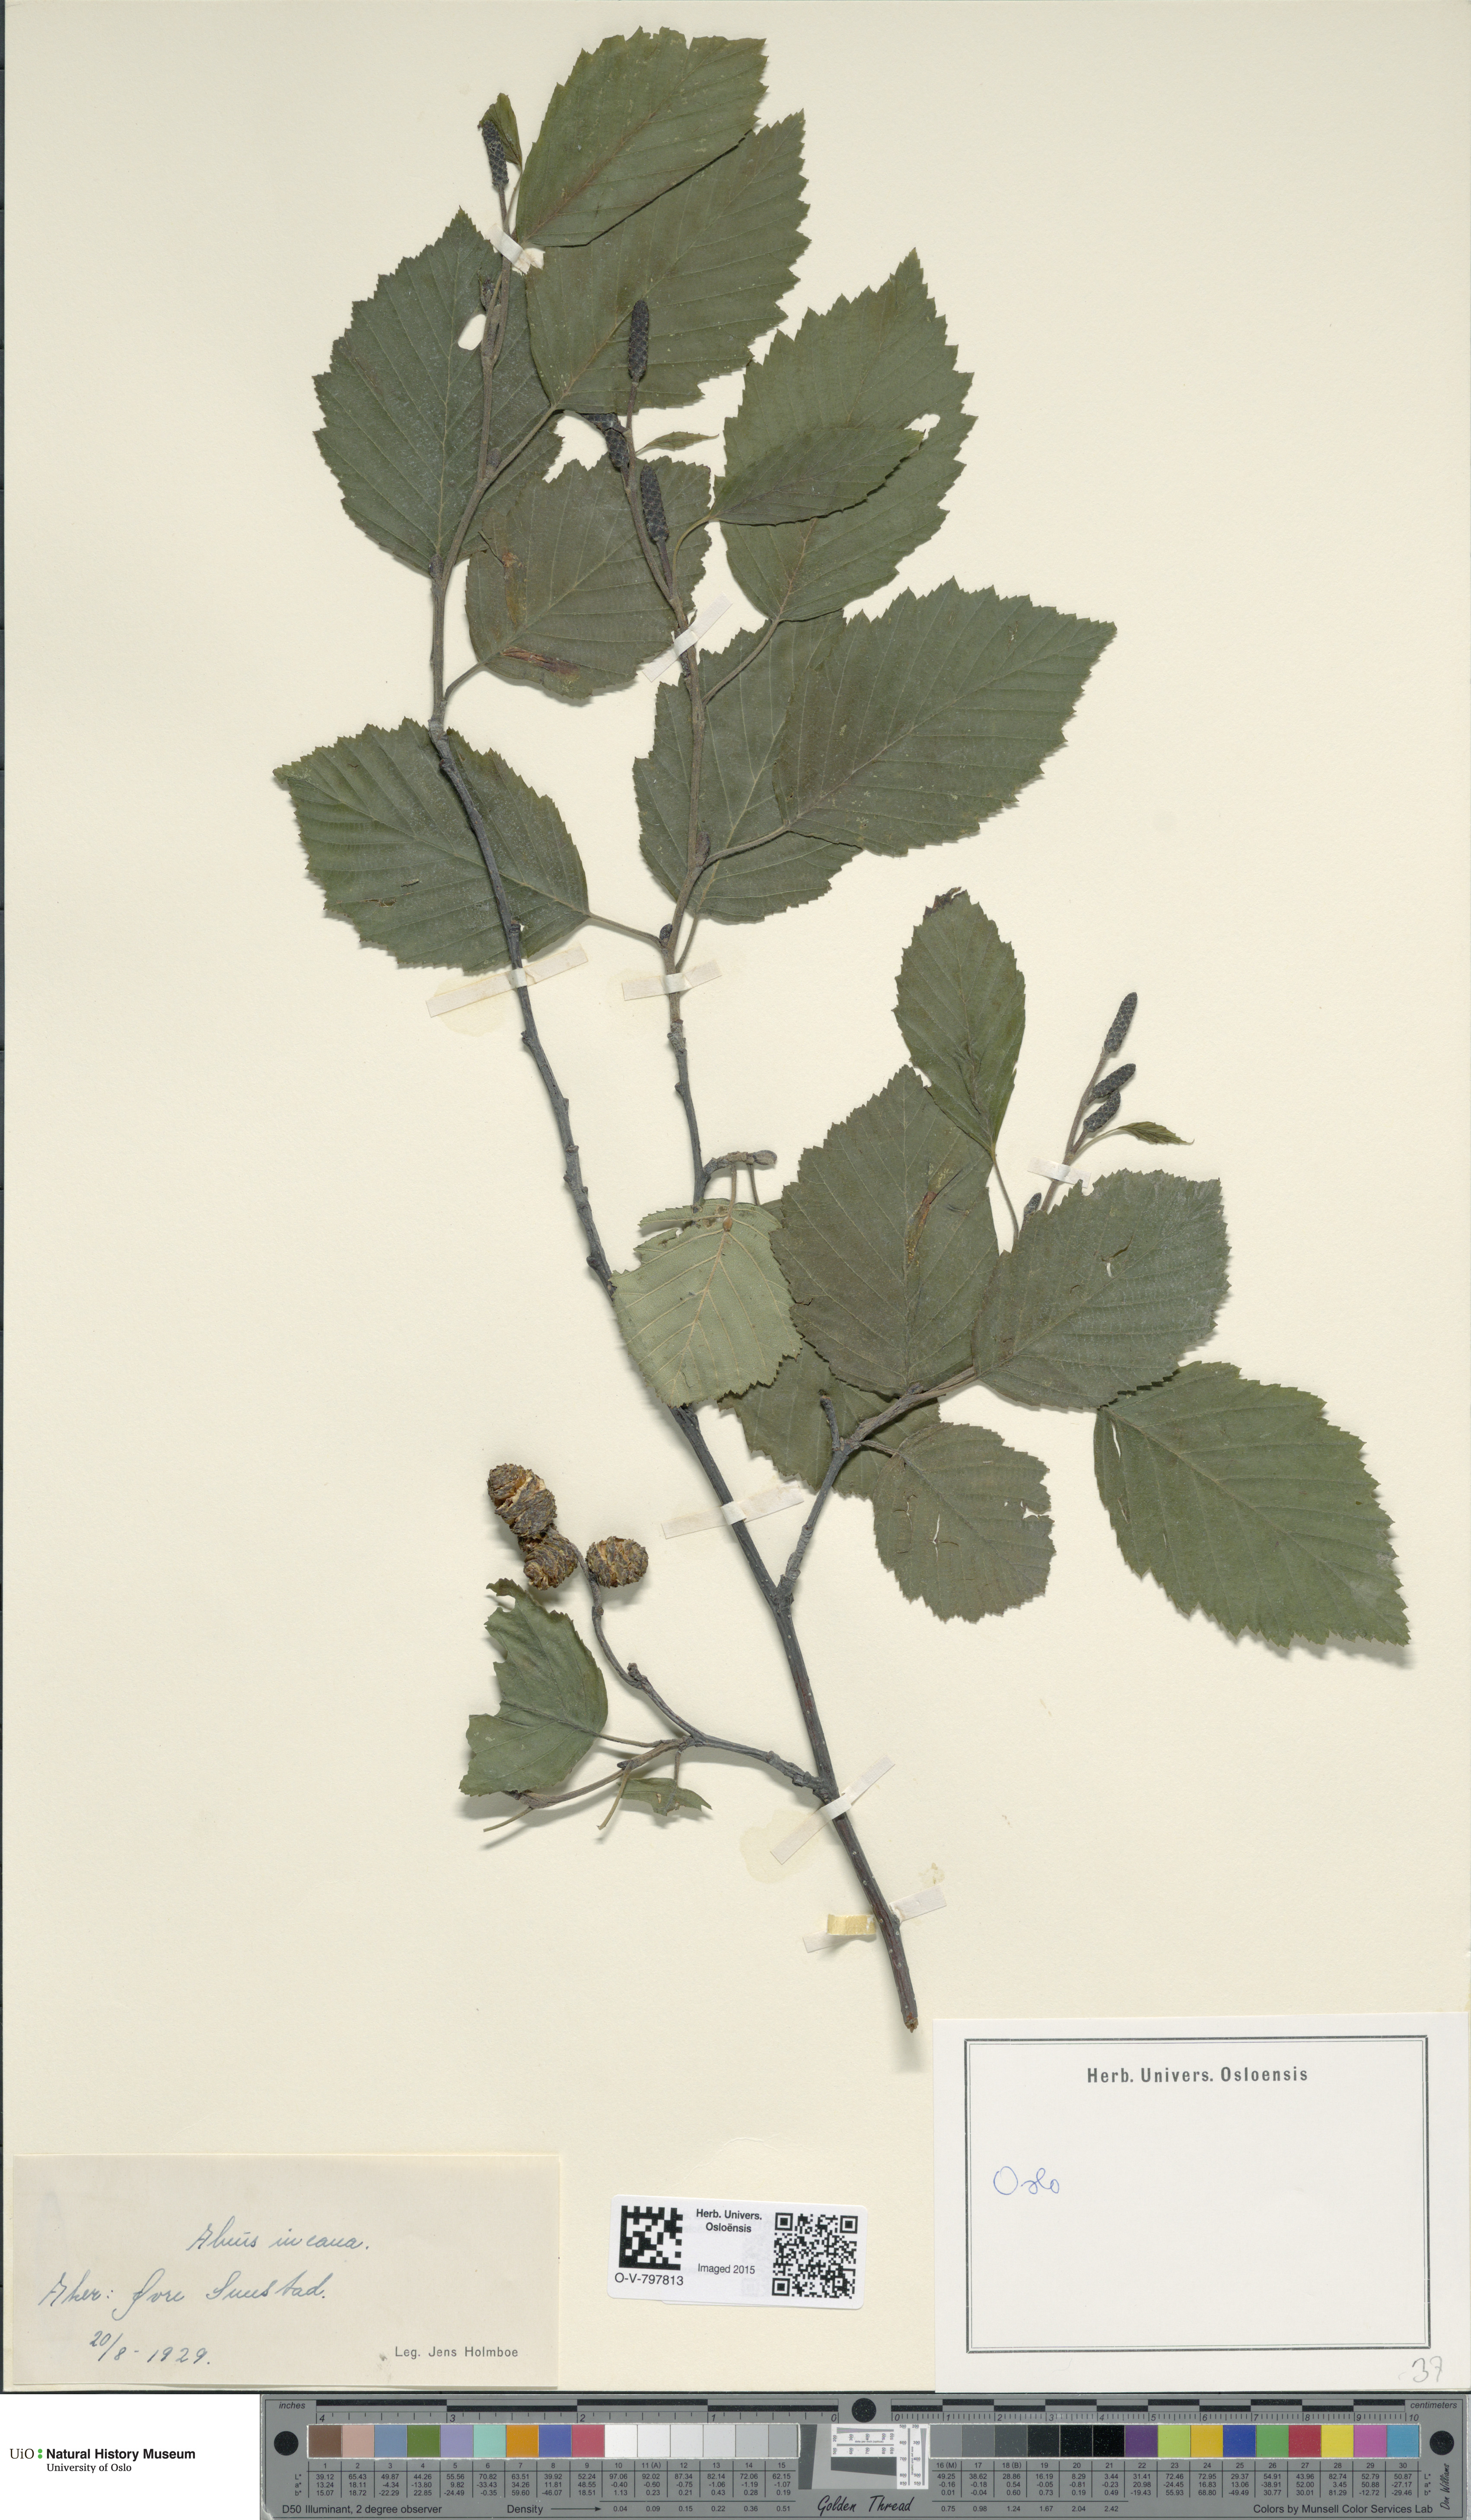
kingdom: Plantae
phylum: Tracheophyta
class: Magnoliopsida
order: Fagales
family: Betulaceae
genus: Alnus
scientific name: Alnus incana
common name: Grey alder
